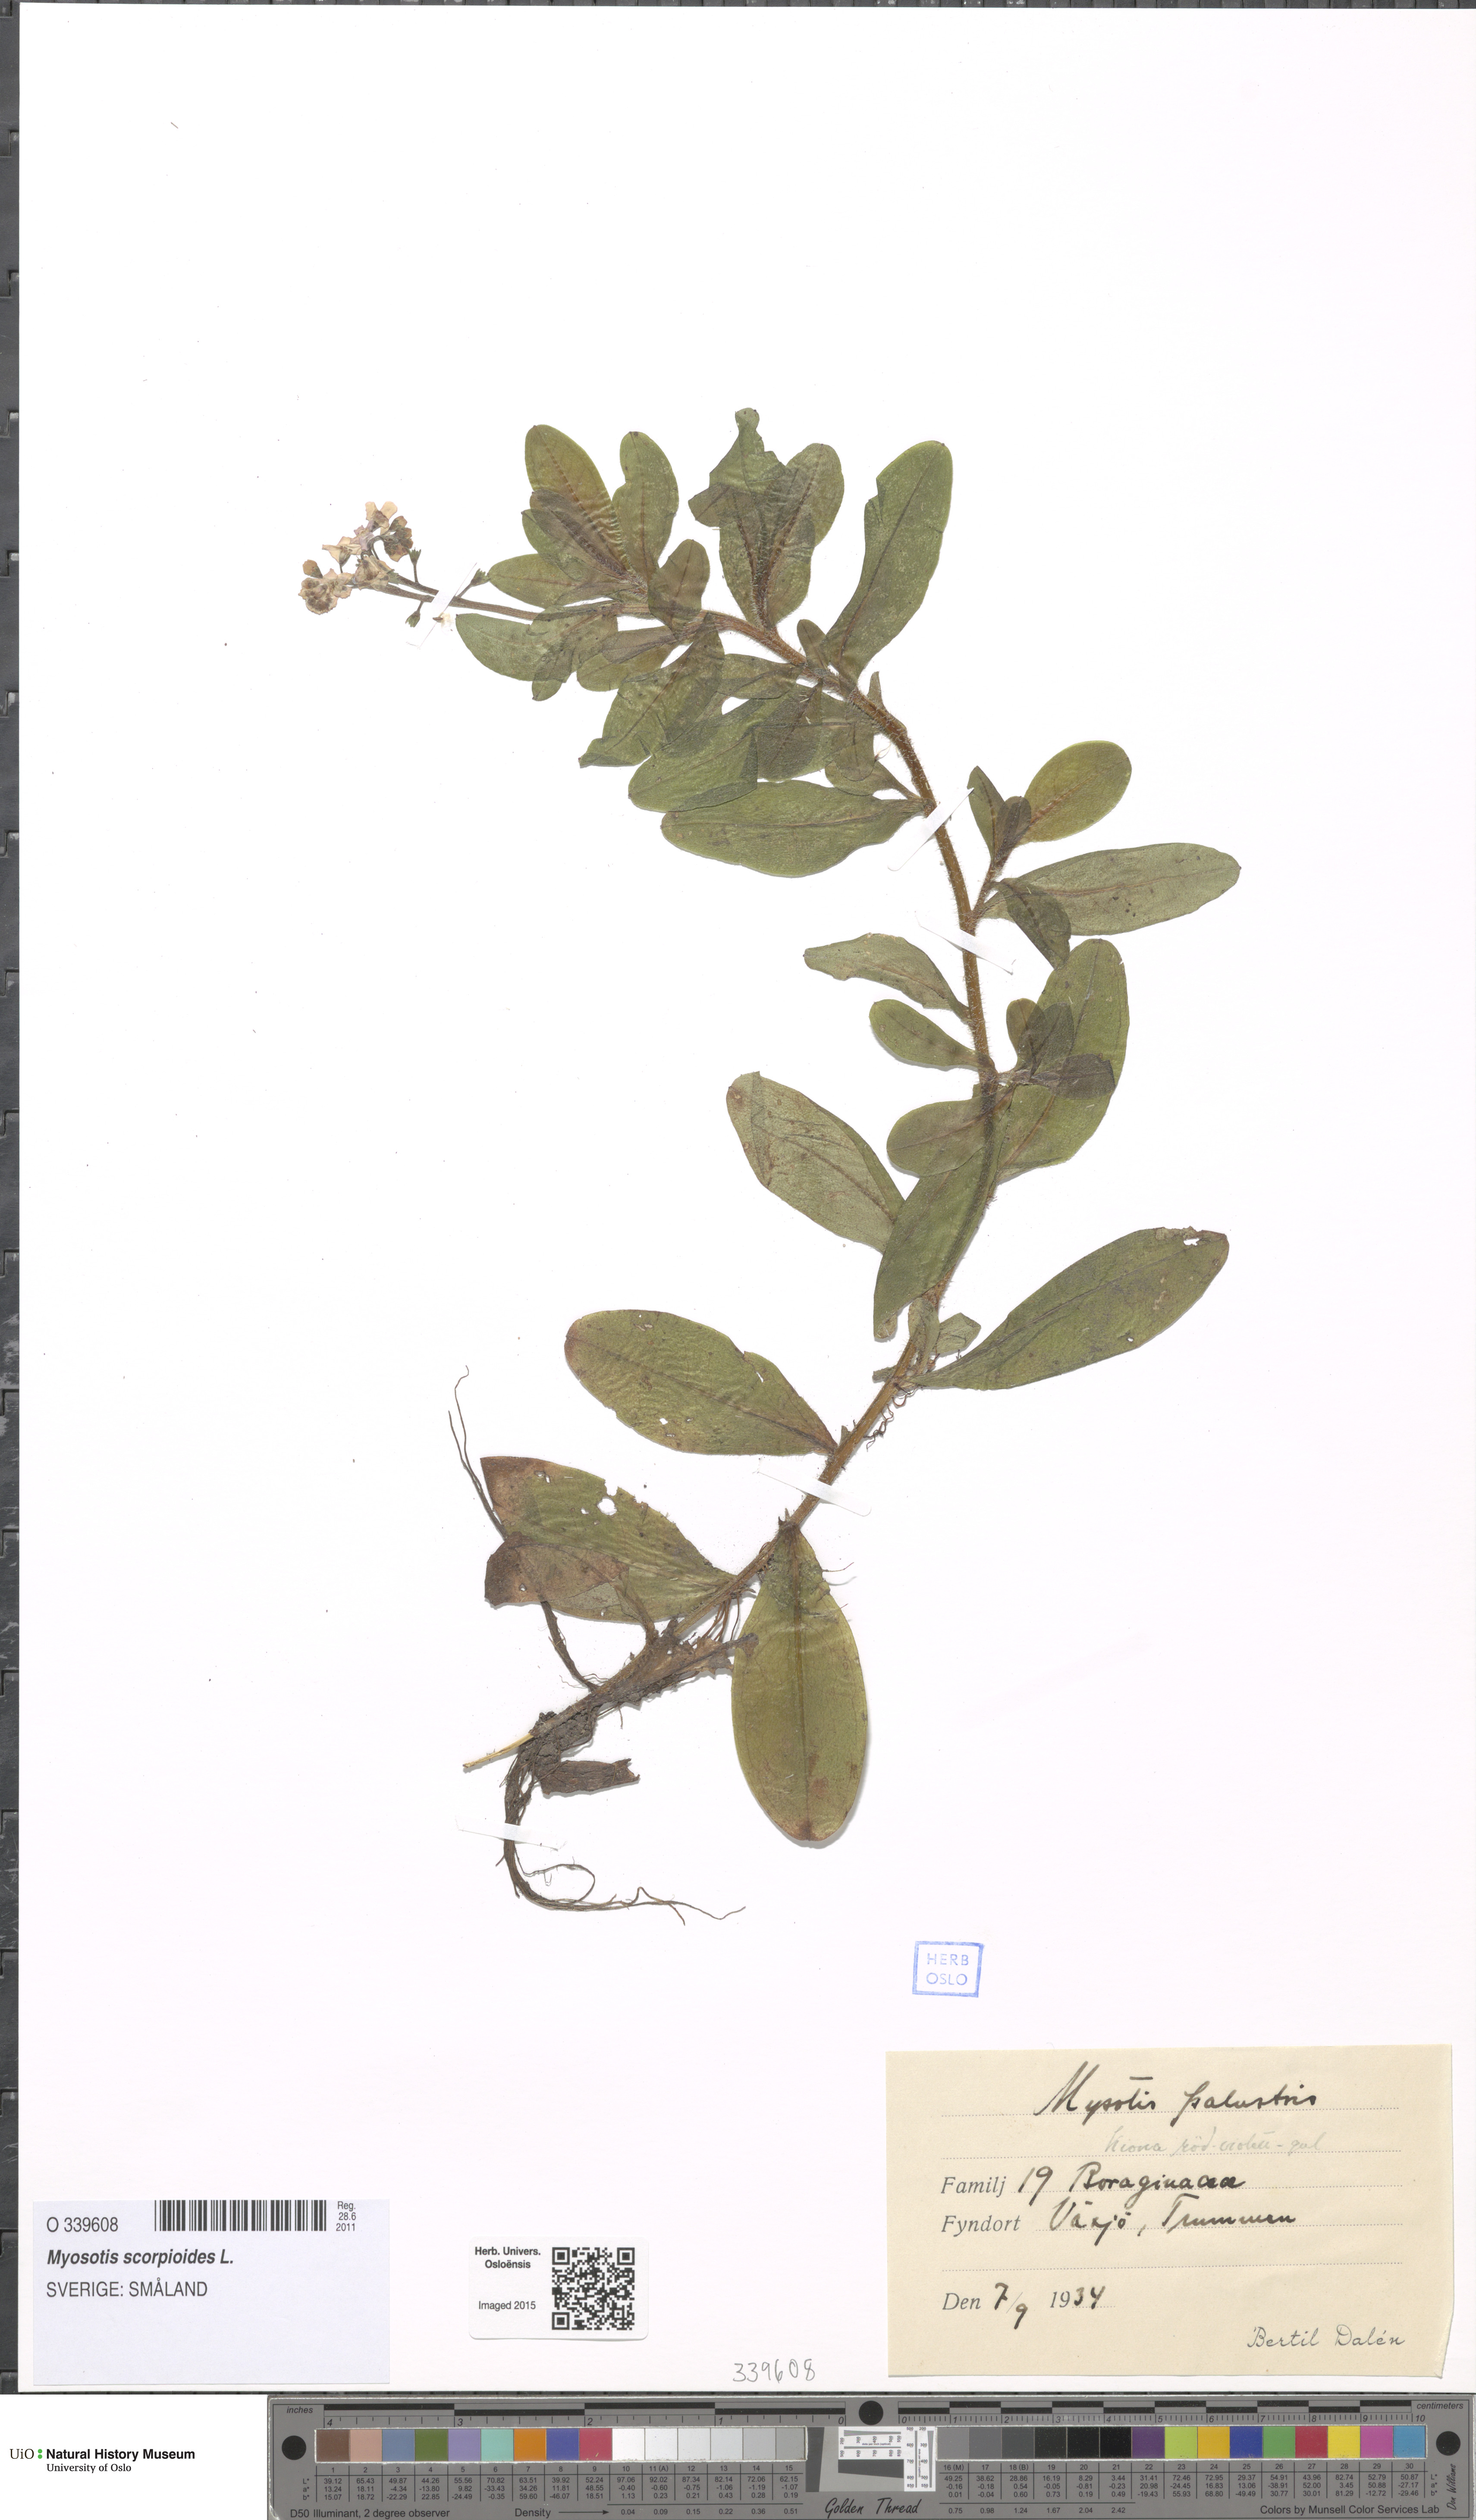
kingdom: Plantae
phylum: Tracheophyta
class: Magnoliopsida
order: Boraginales
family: Boraginaceae
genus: Myosotis
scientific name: Myosotis scorpioides
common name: Water forget-me-not
